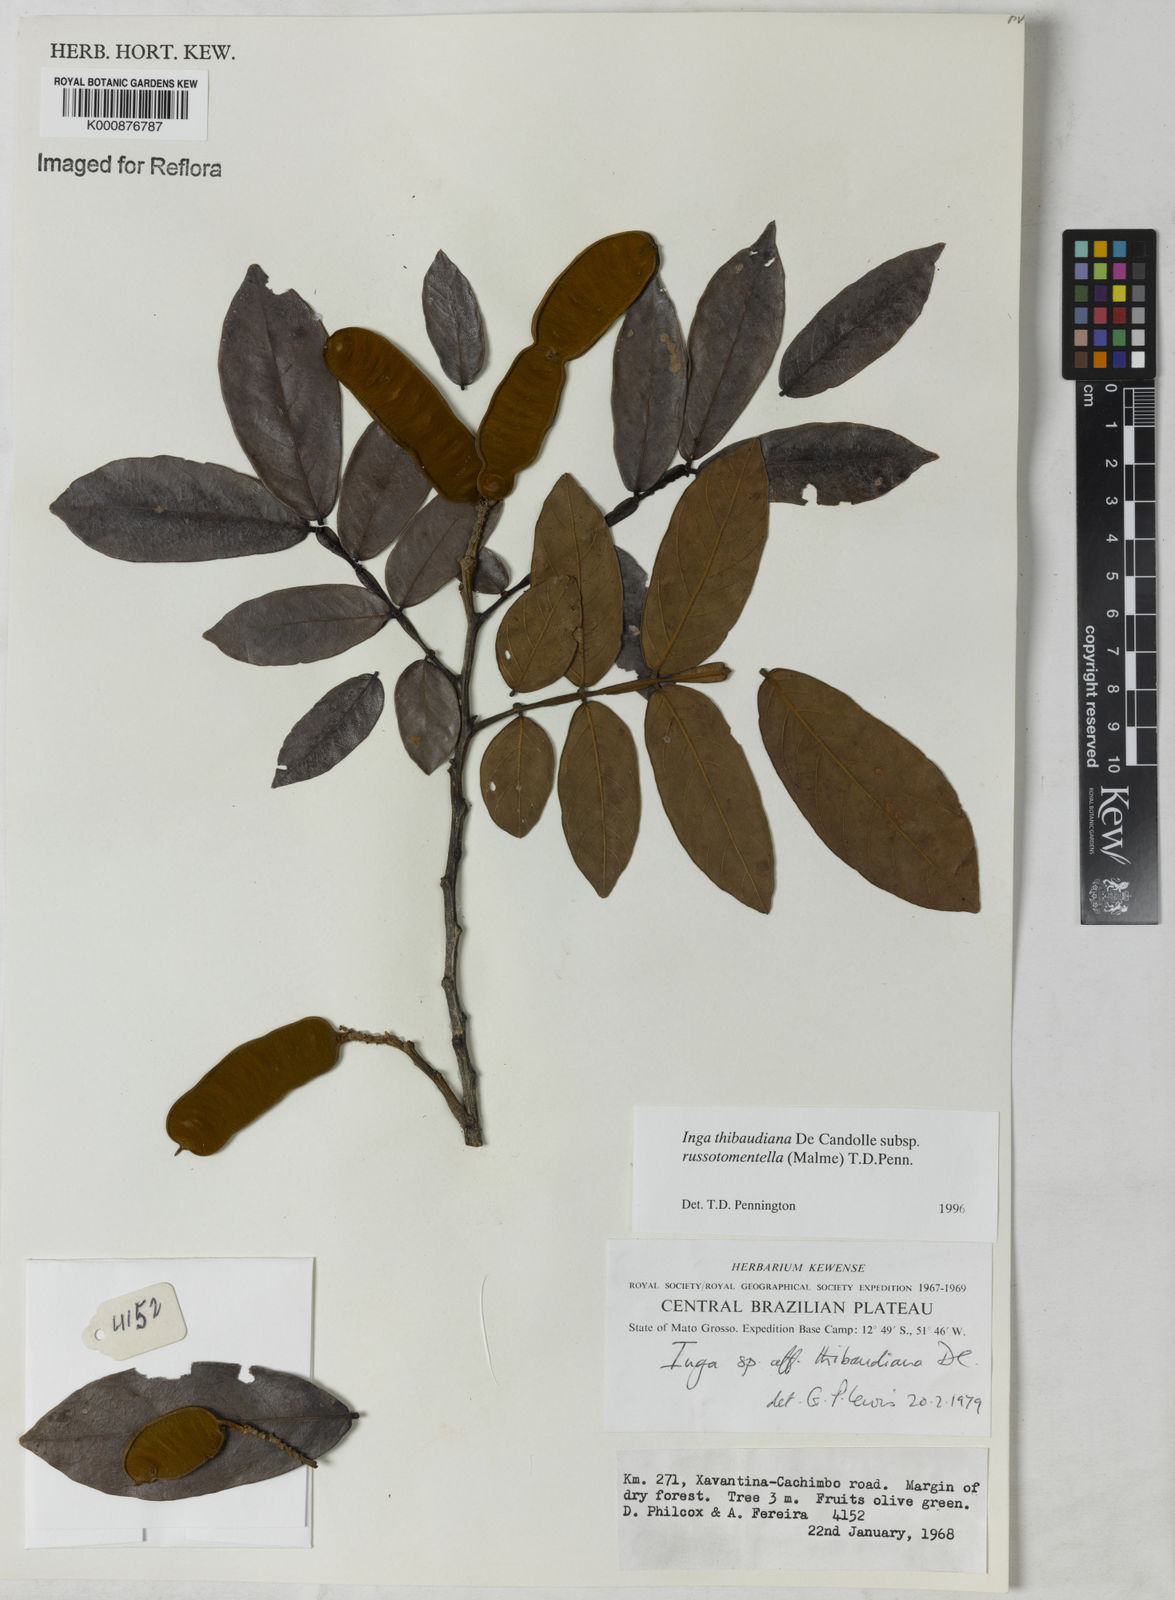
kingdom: Plantae
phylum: Tracheophyta
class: Magnoliopsida
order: Fabales
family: Fabaceae
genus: Inga
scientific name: Inga thibaudiana
